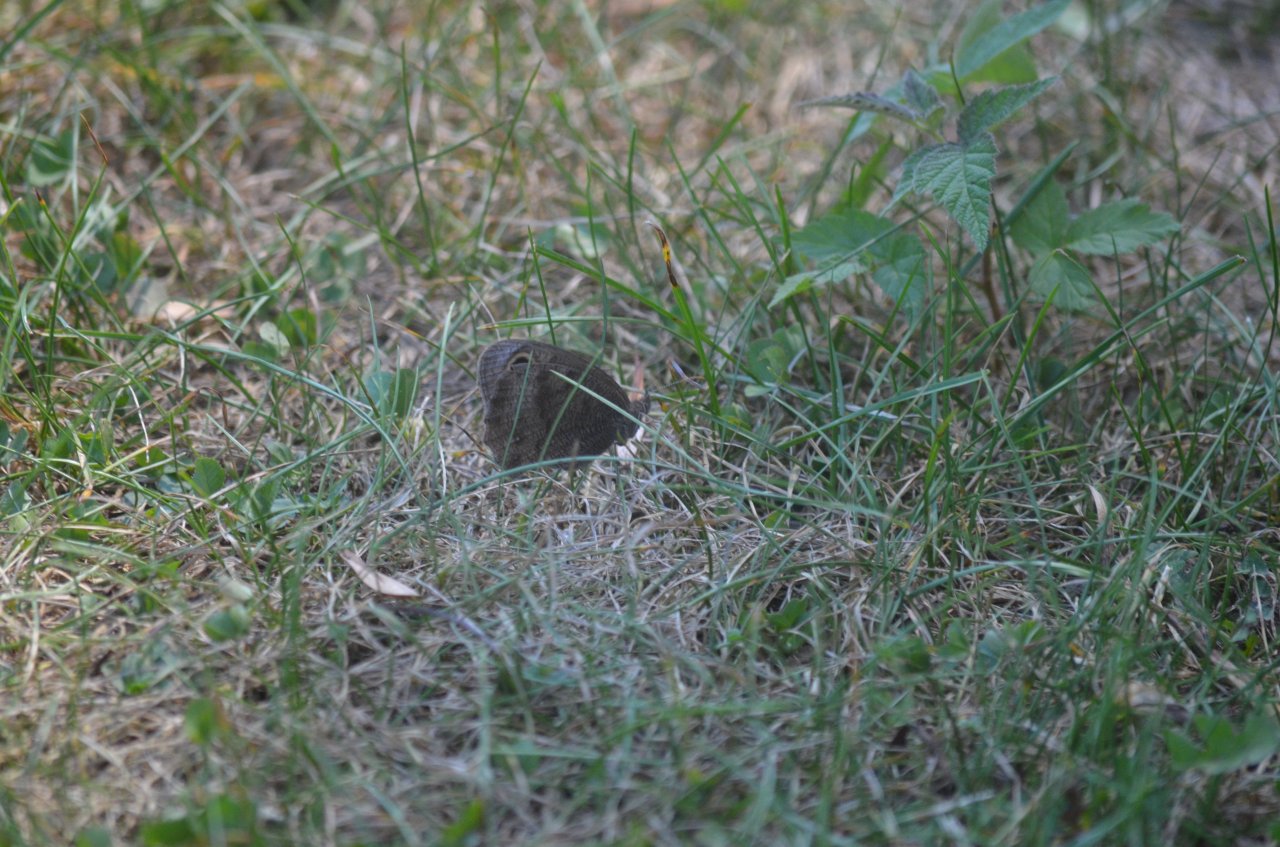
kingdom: Animalia
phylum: Arthropoda
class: Insecta
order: Lepidoptera
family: Nymphalidae
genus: Cercyonis
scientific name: Cercyonis pegala
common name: Common Wood-Nymph
